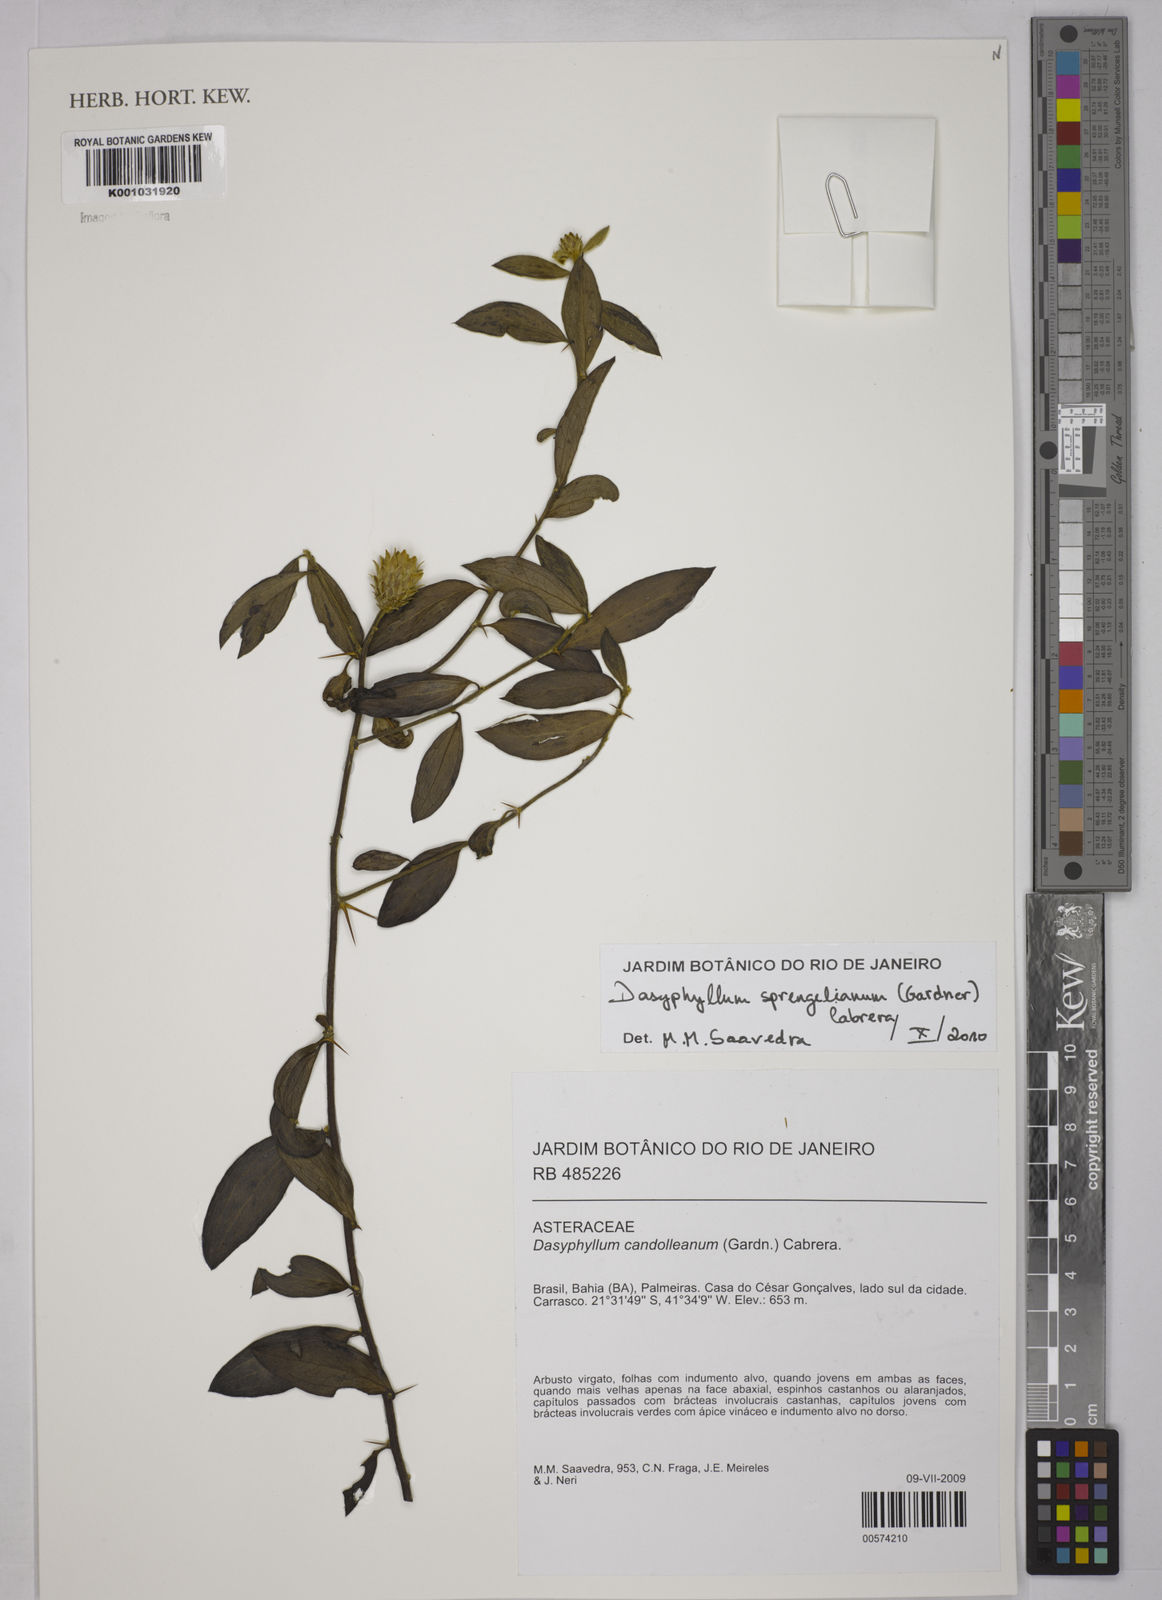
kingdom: Plantae
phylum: Tracheophyta
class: Magnoliopsida
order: Asterales
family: Asteraceae
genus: Dasyphyllum
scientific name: Dasyphyllum sprengelianum
